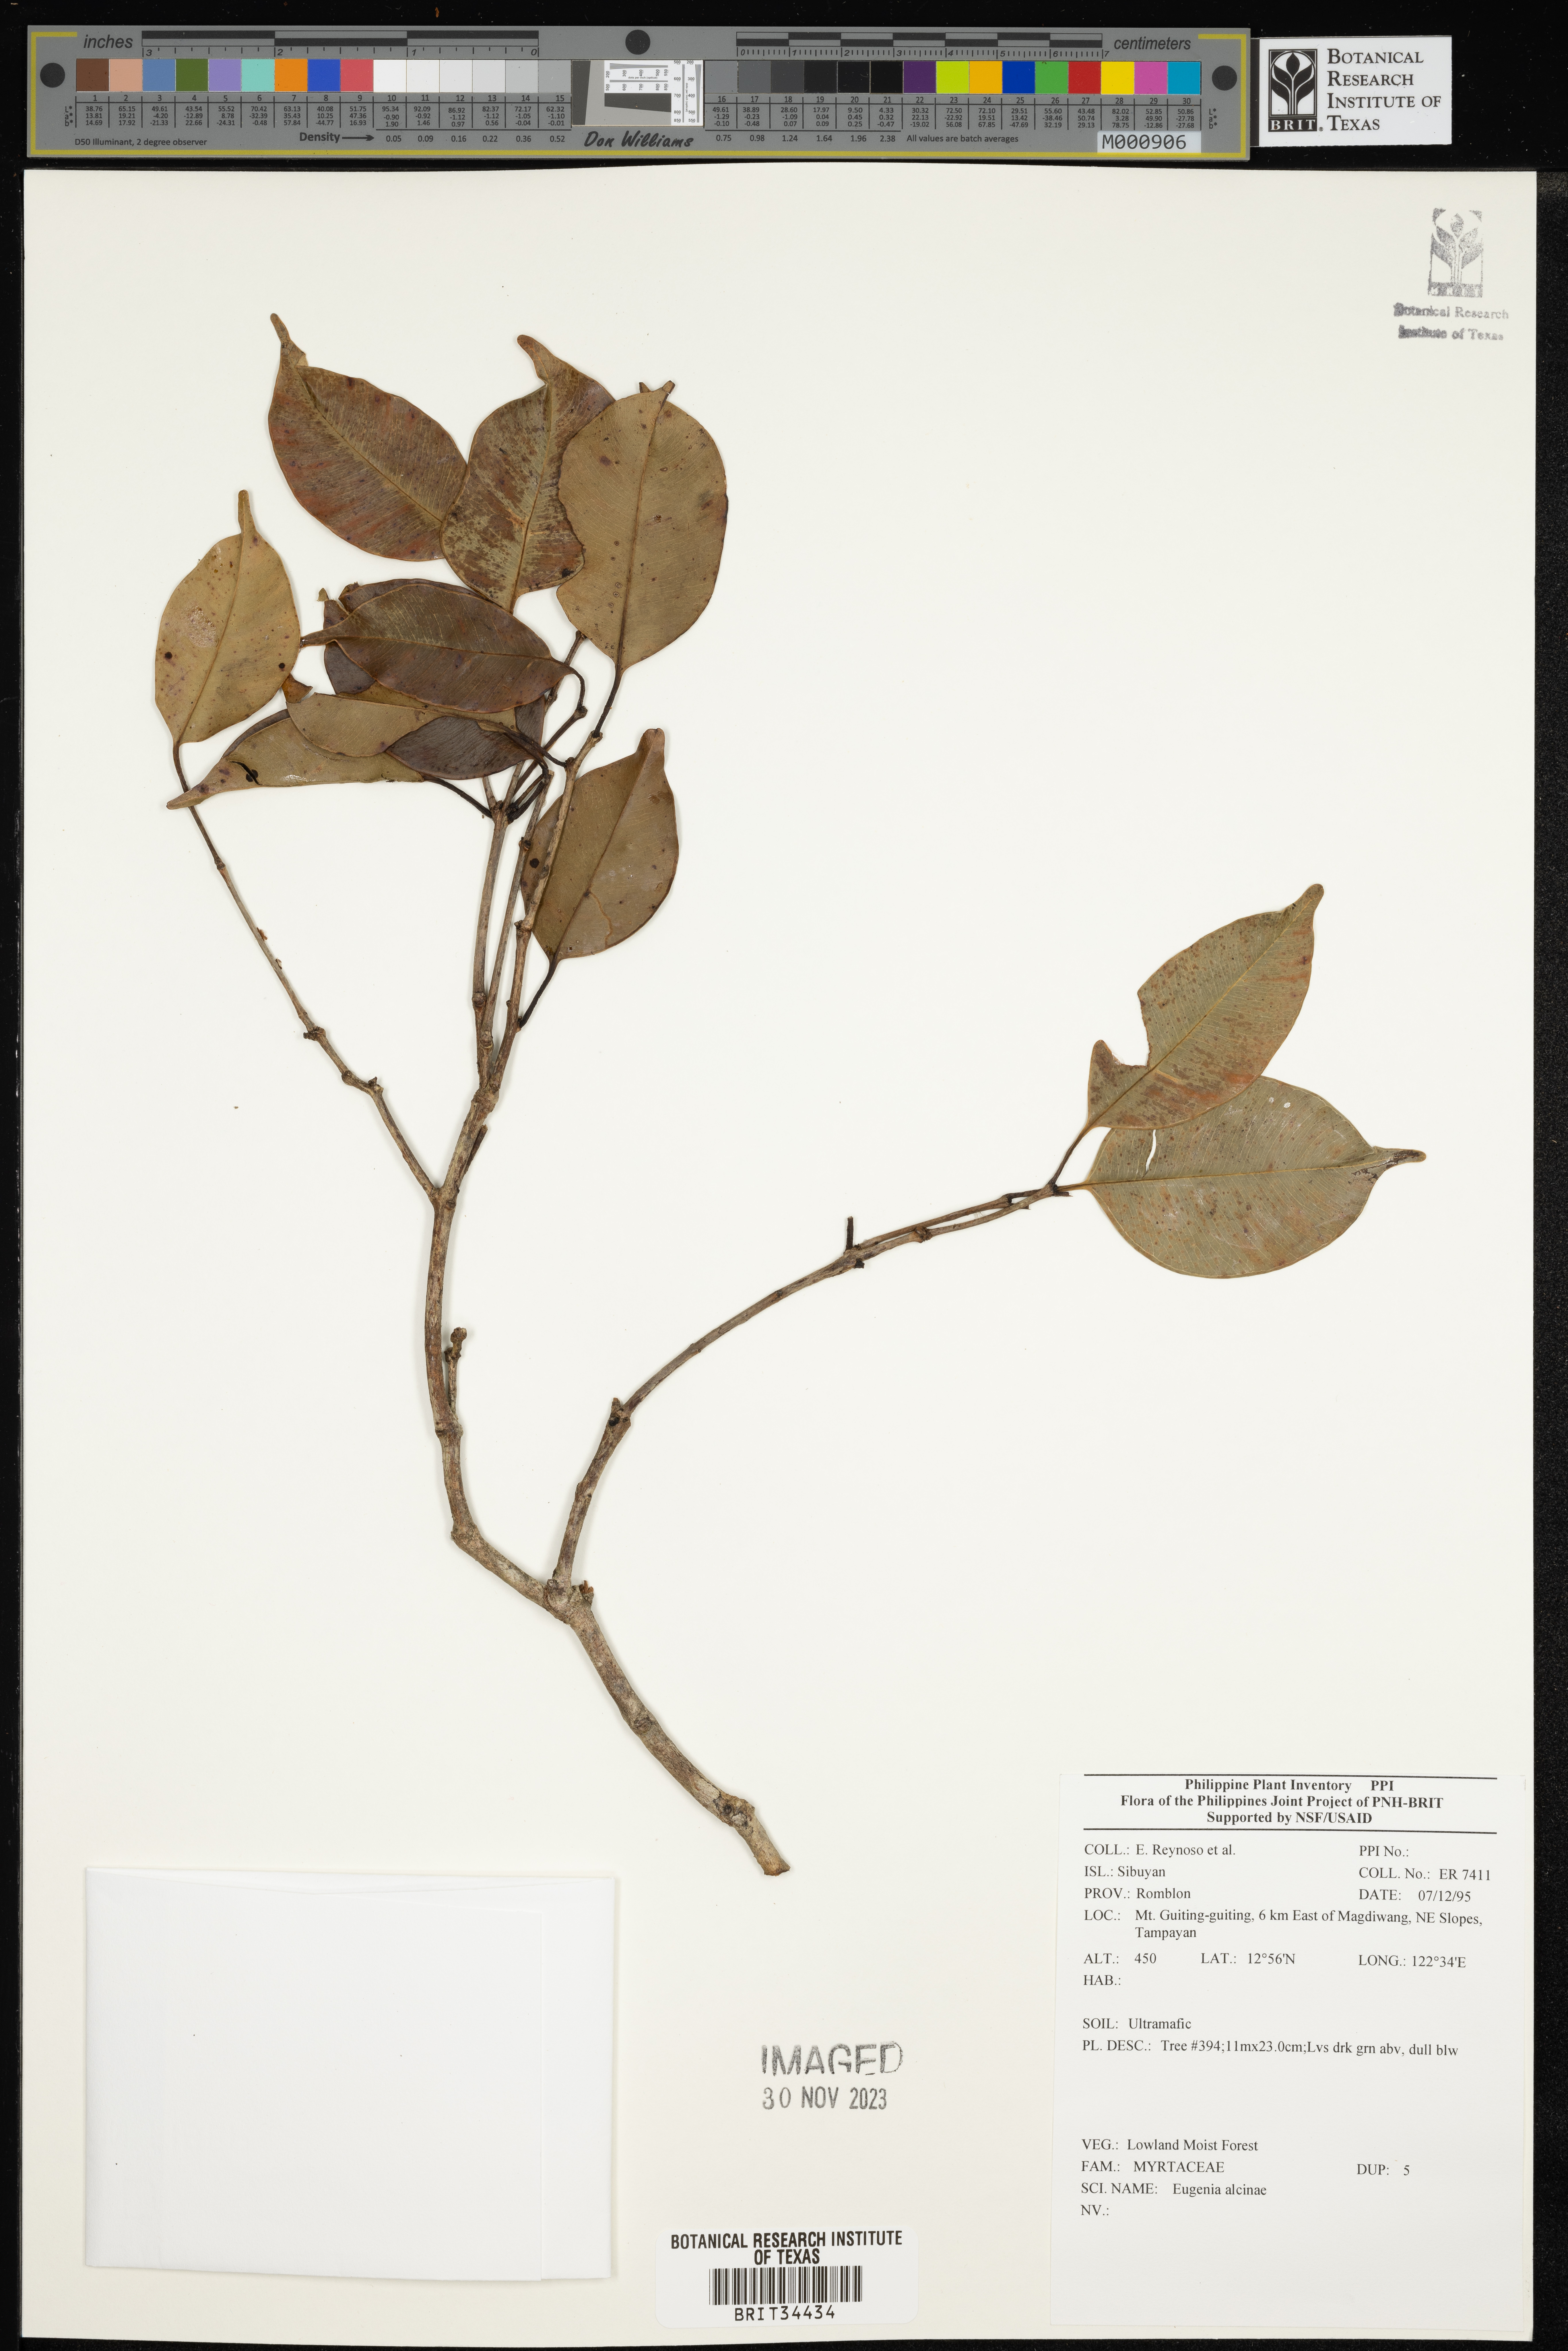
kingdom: Plantae
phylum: Tracheophyta
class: Magnoliopsida
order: Myrtales
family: Myrtaceae
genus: Eugenia
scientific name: Eugenia
